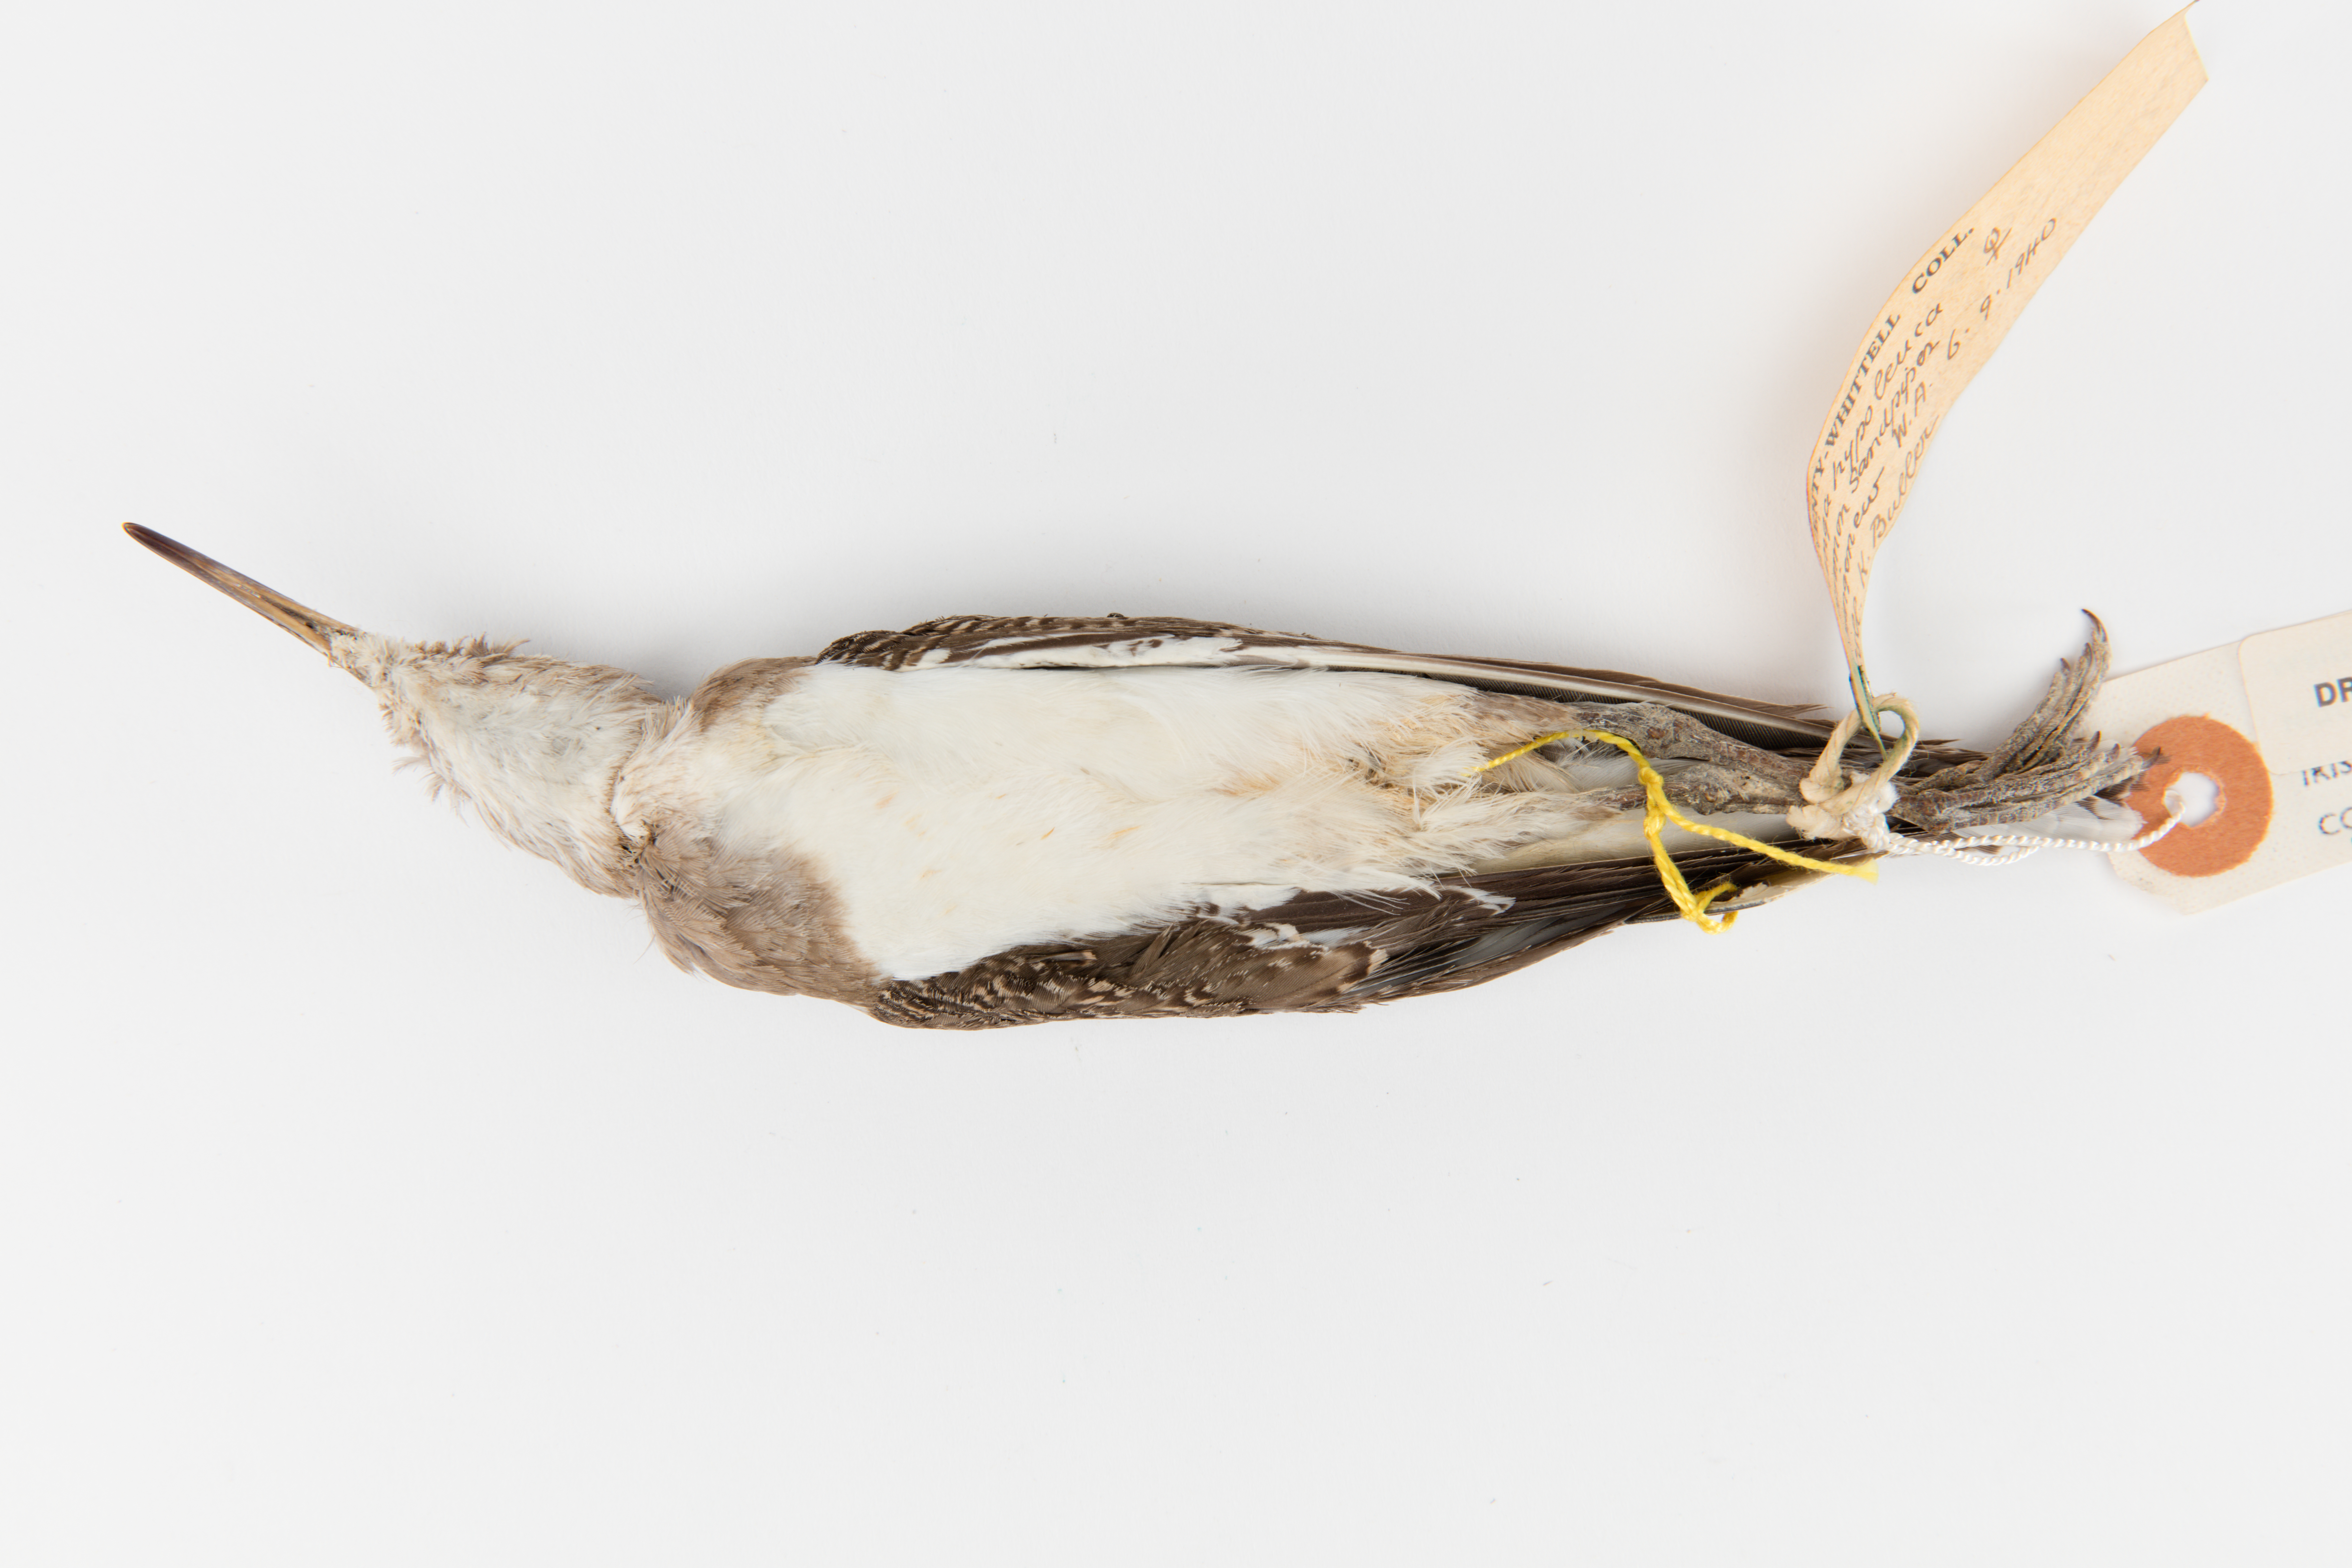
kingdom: Animalia
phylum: Chordata
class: Aves
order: Charadriiformes
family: Scolopacidae
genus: Actitis
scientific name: Actitis hypoleucos
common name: Common sandpiper
